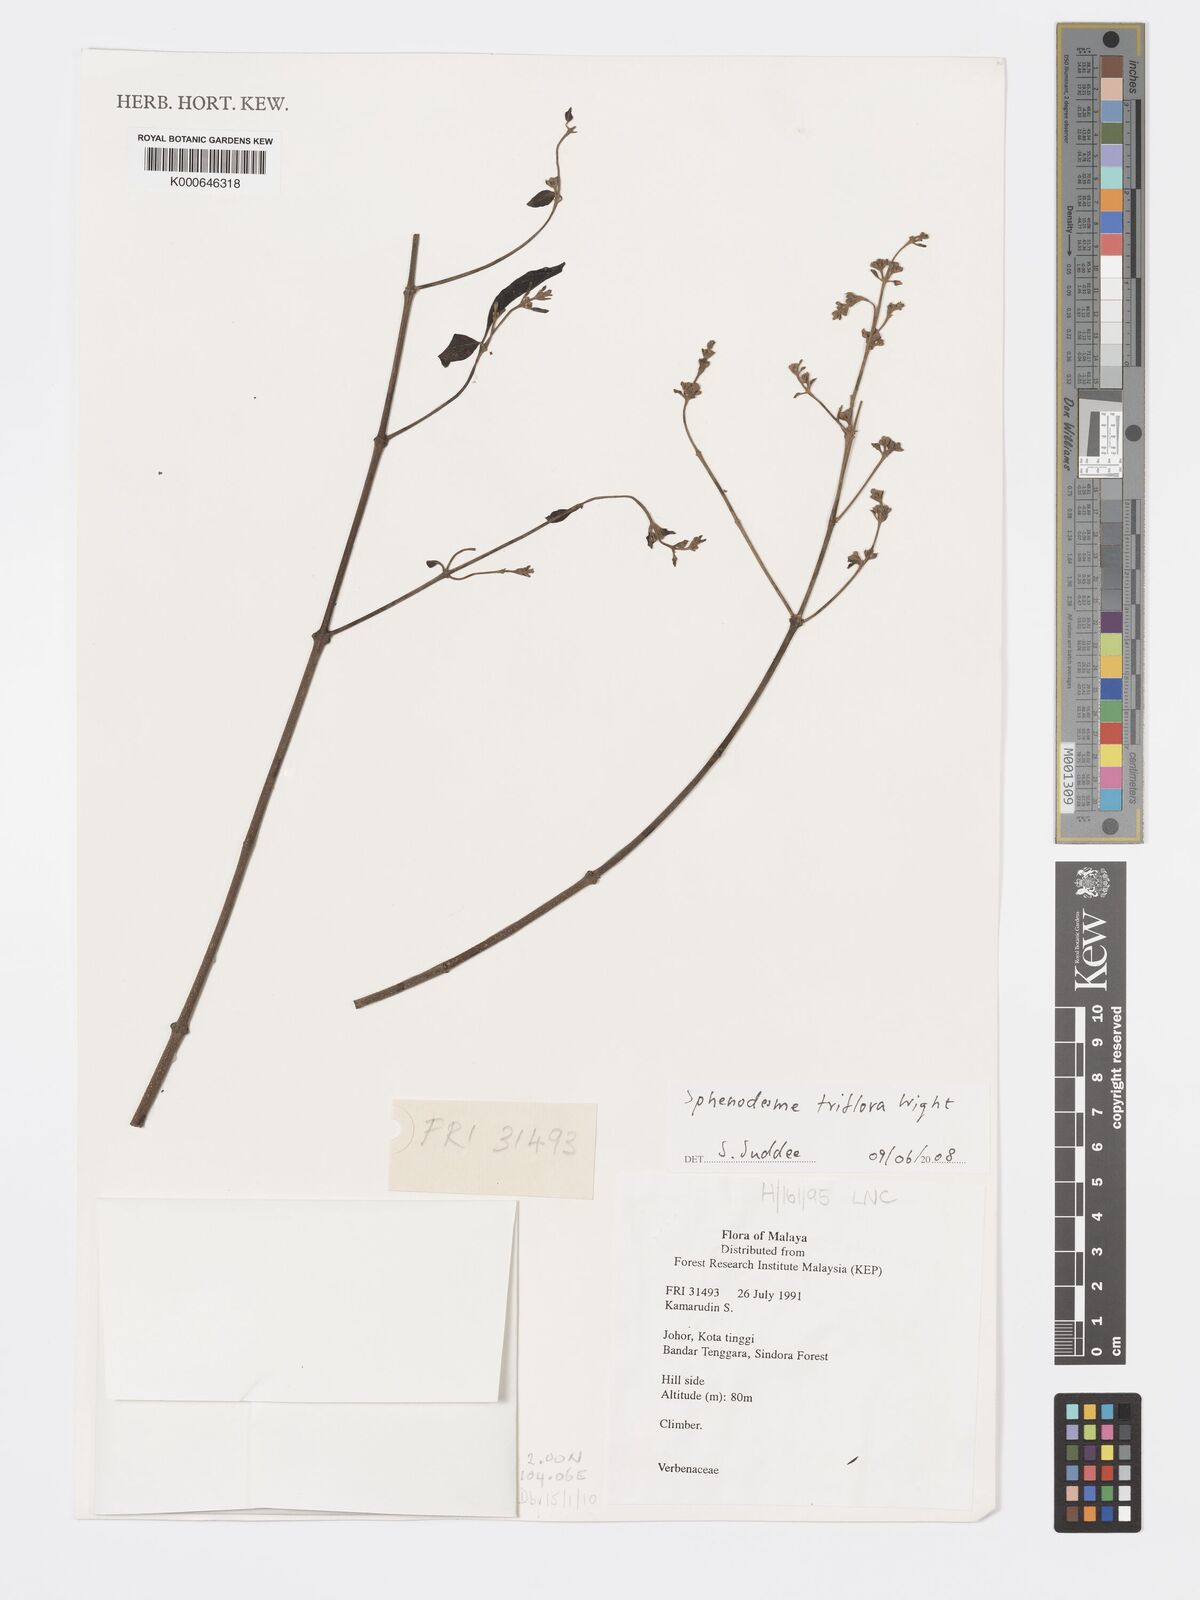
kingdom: Plantae
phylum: Tracheophyta
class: Magnoliopsida
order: Lamiales
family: Lamiaceae
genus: Sphenodesme
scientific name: Sphenodesme
